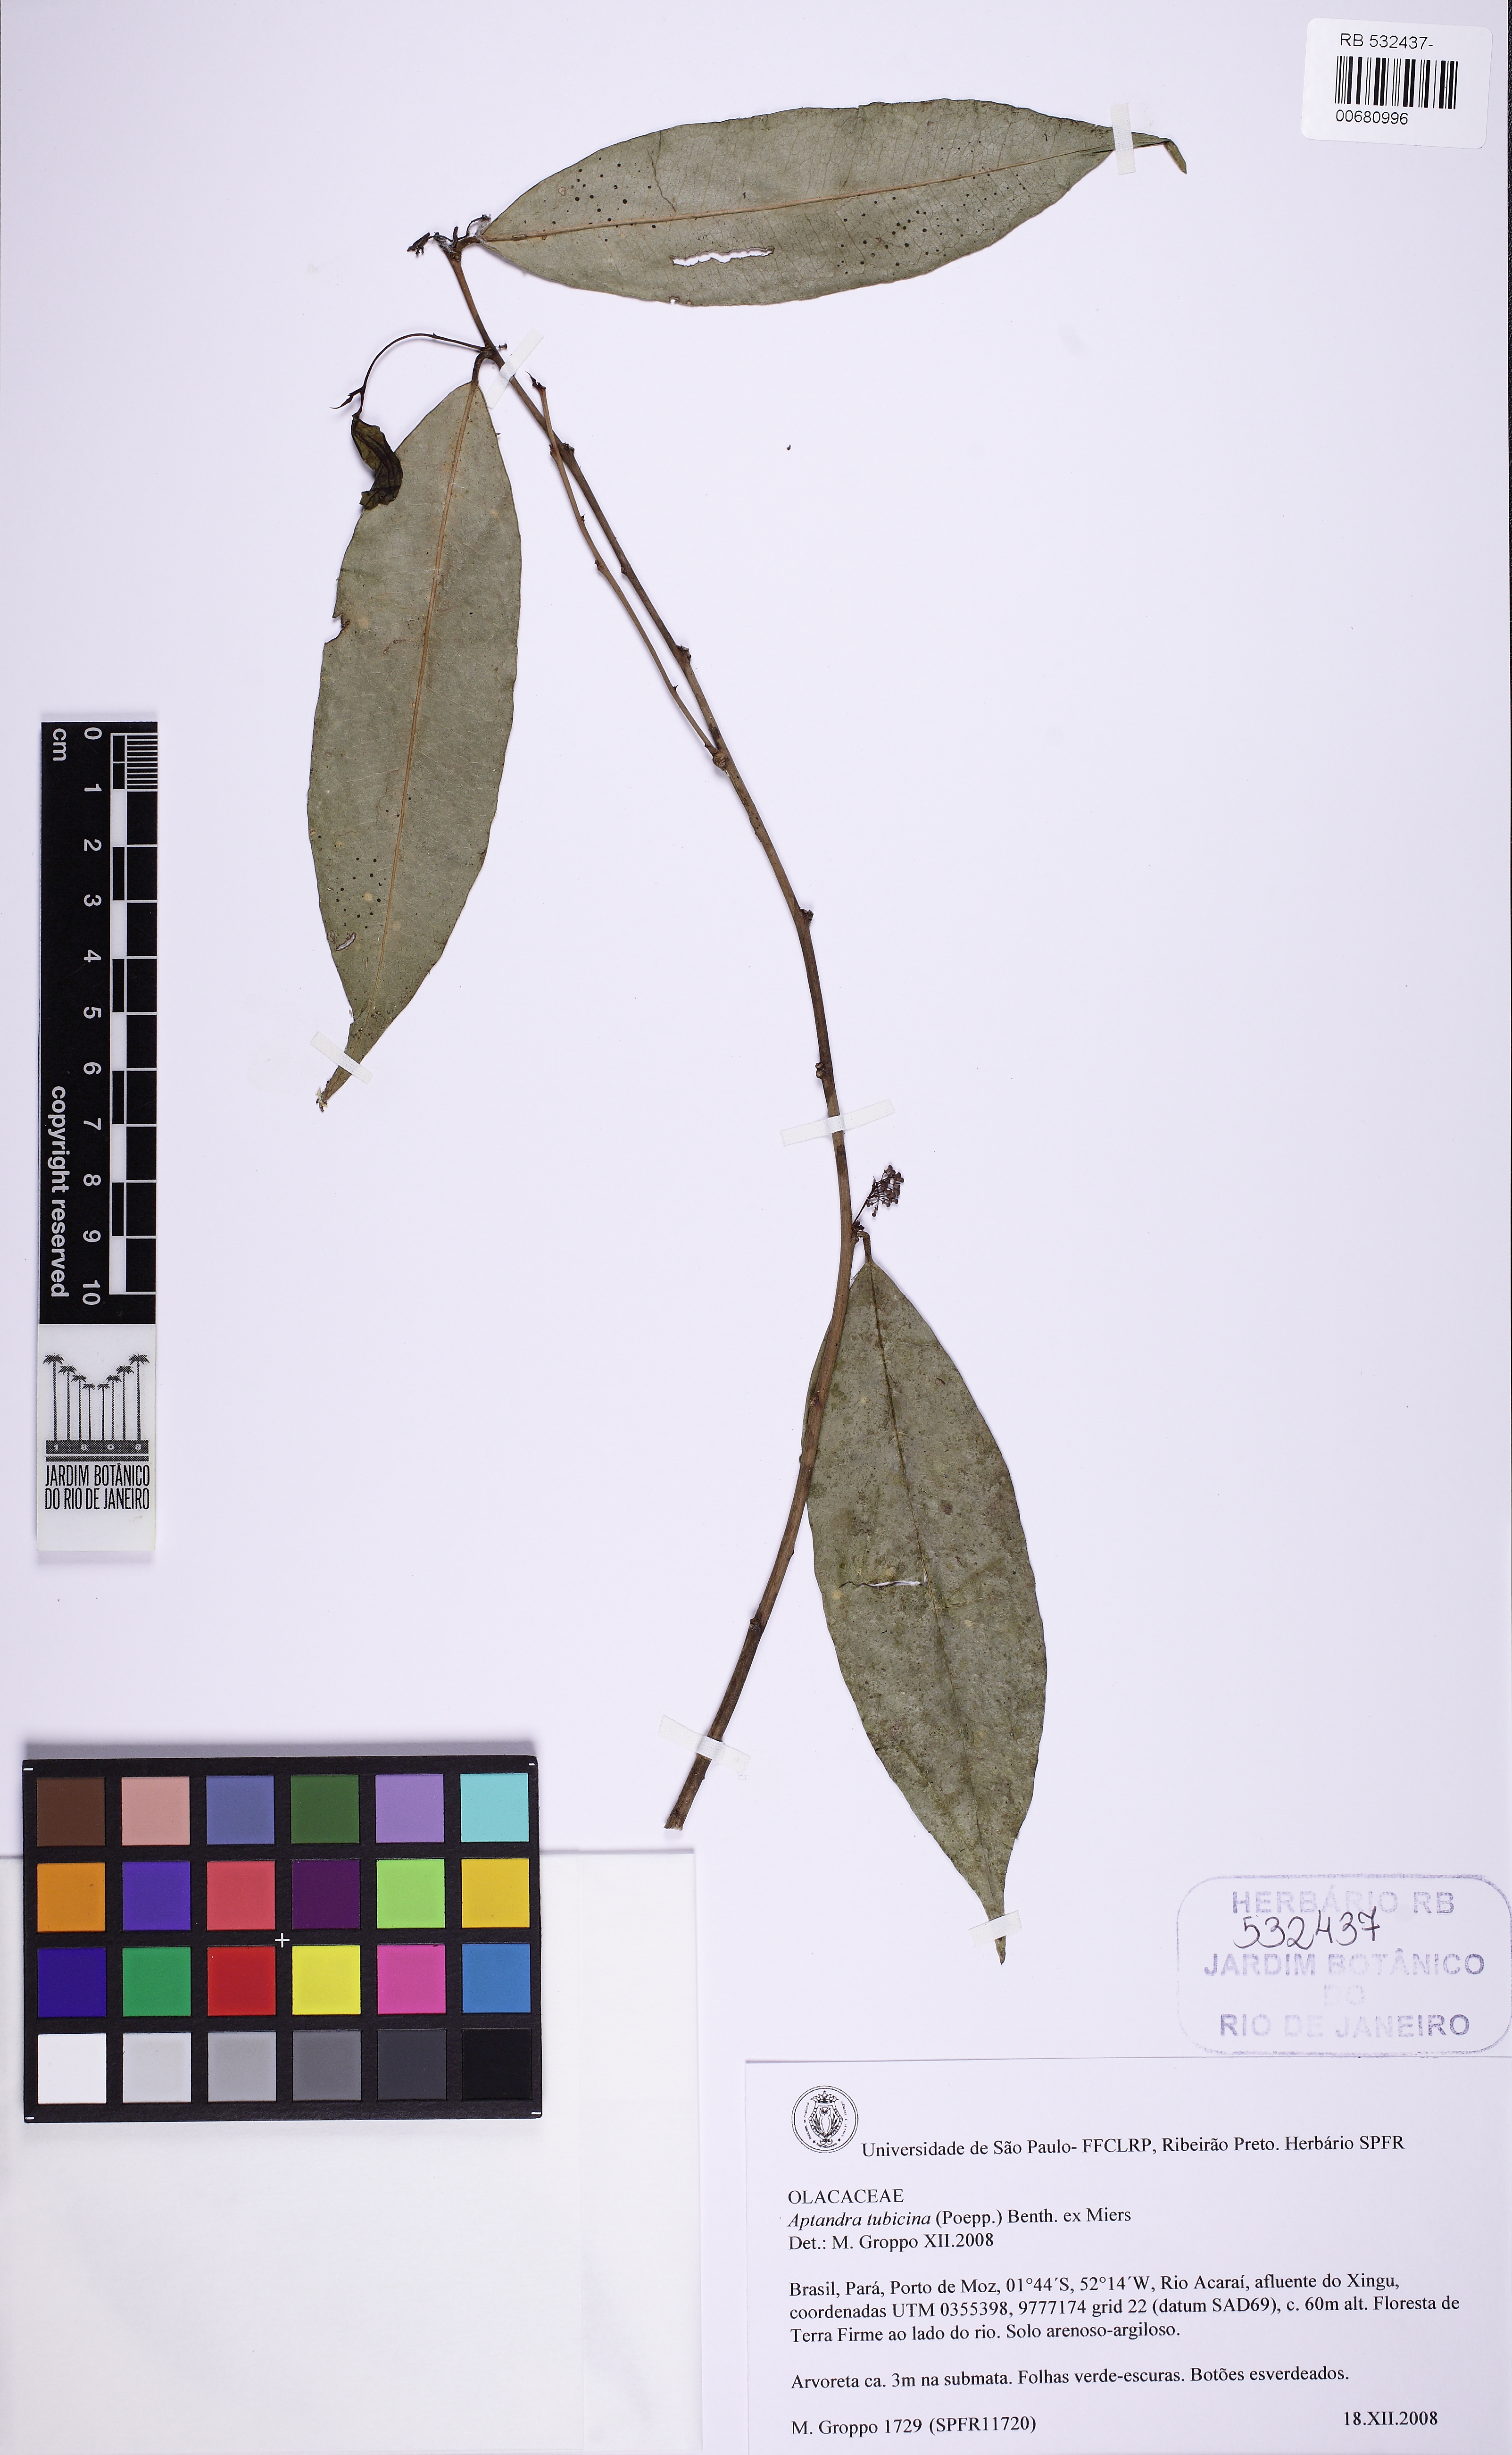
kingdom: Plantae
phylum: Tracheophyta
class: Magnoliopsida
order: Santalales
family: Aptandraceae
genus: Aptandra
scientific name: Aptandra tubicina
